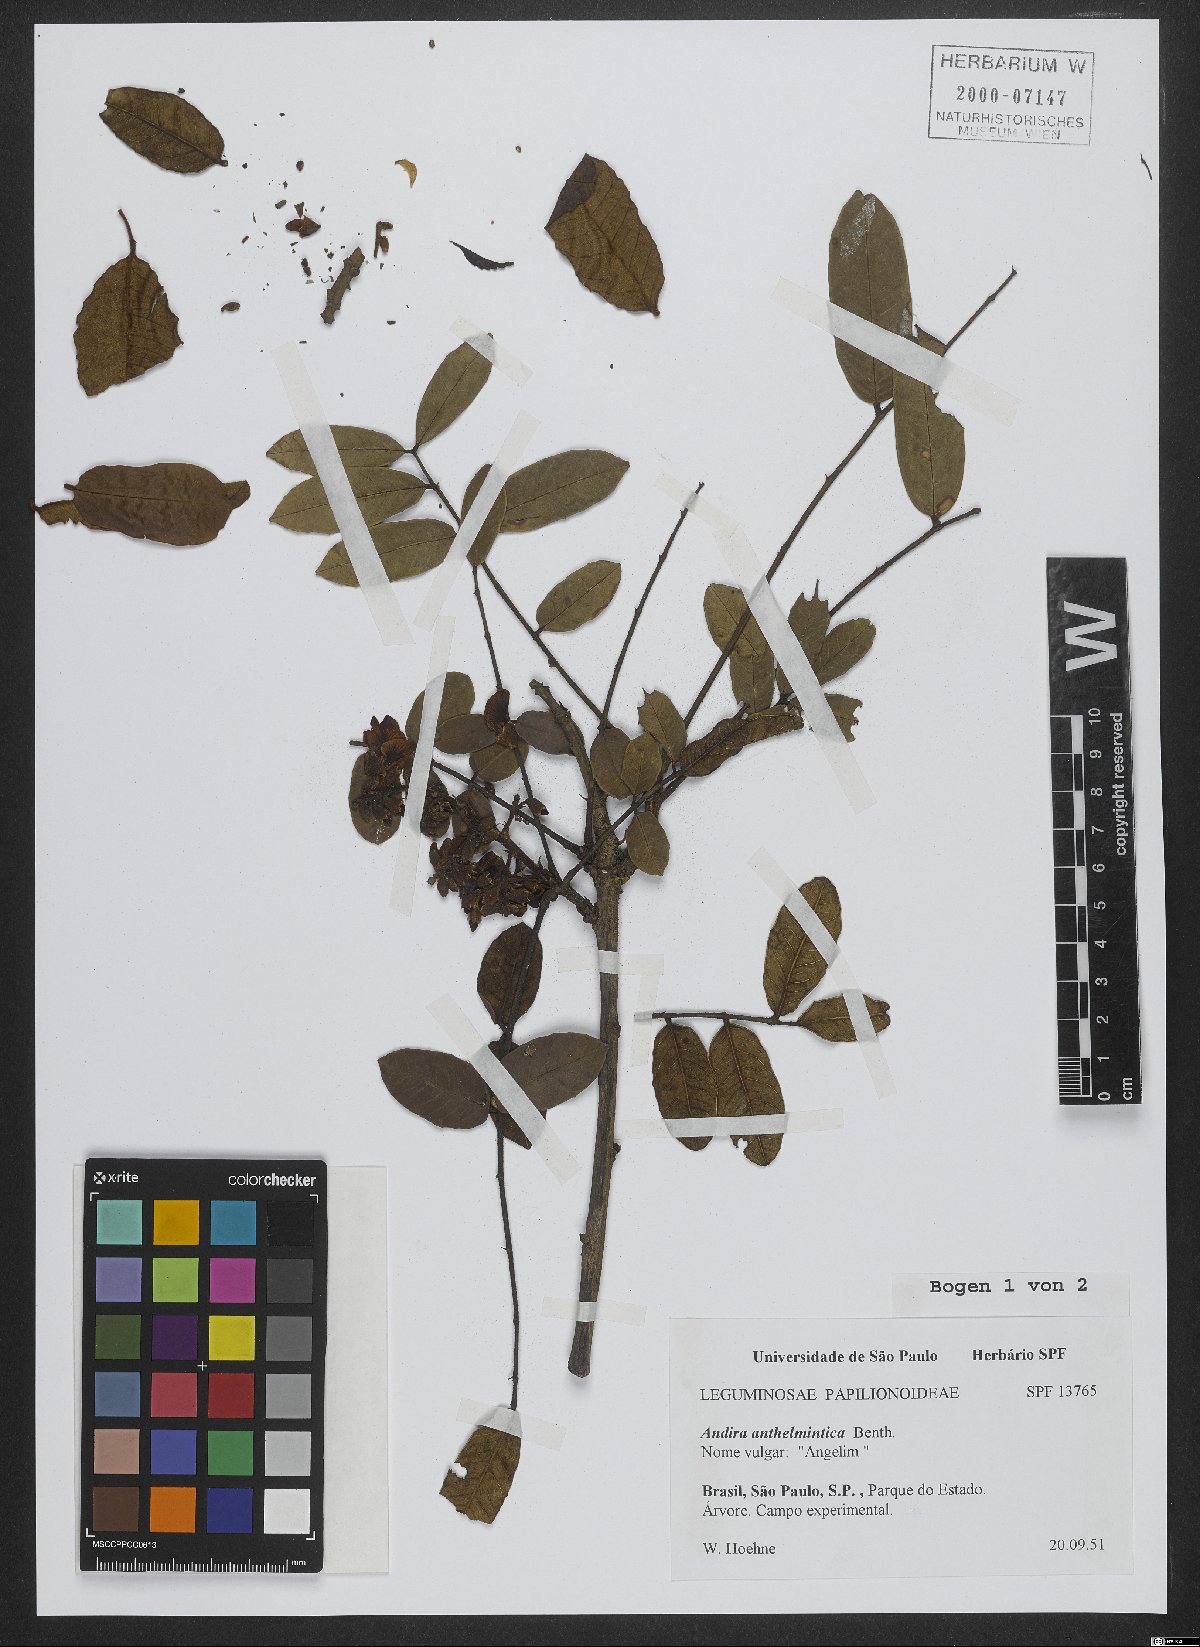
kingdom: Plantae
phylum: Tracheophyta
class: Magnoliopsida
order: Fabales
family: Fabaceae
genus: Andira
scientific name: Andira anthelmia
